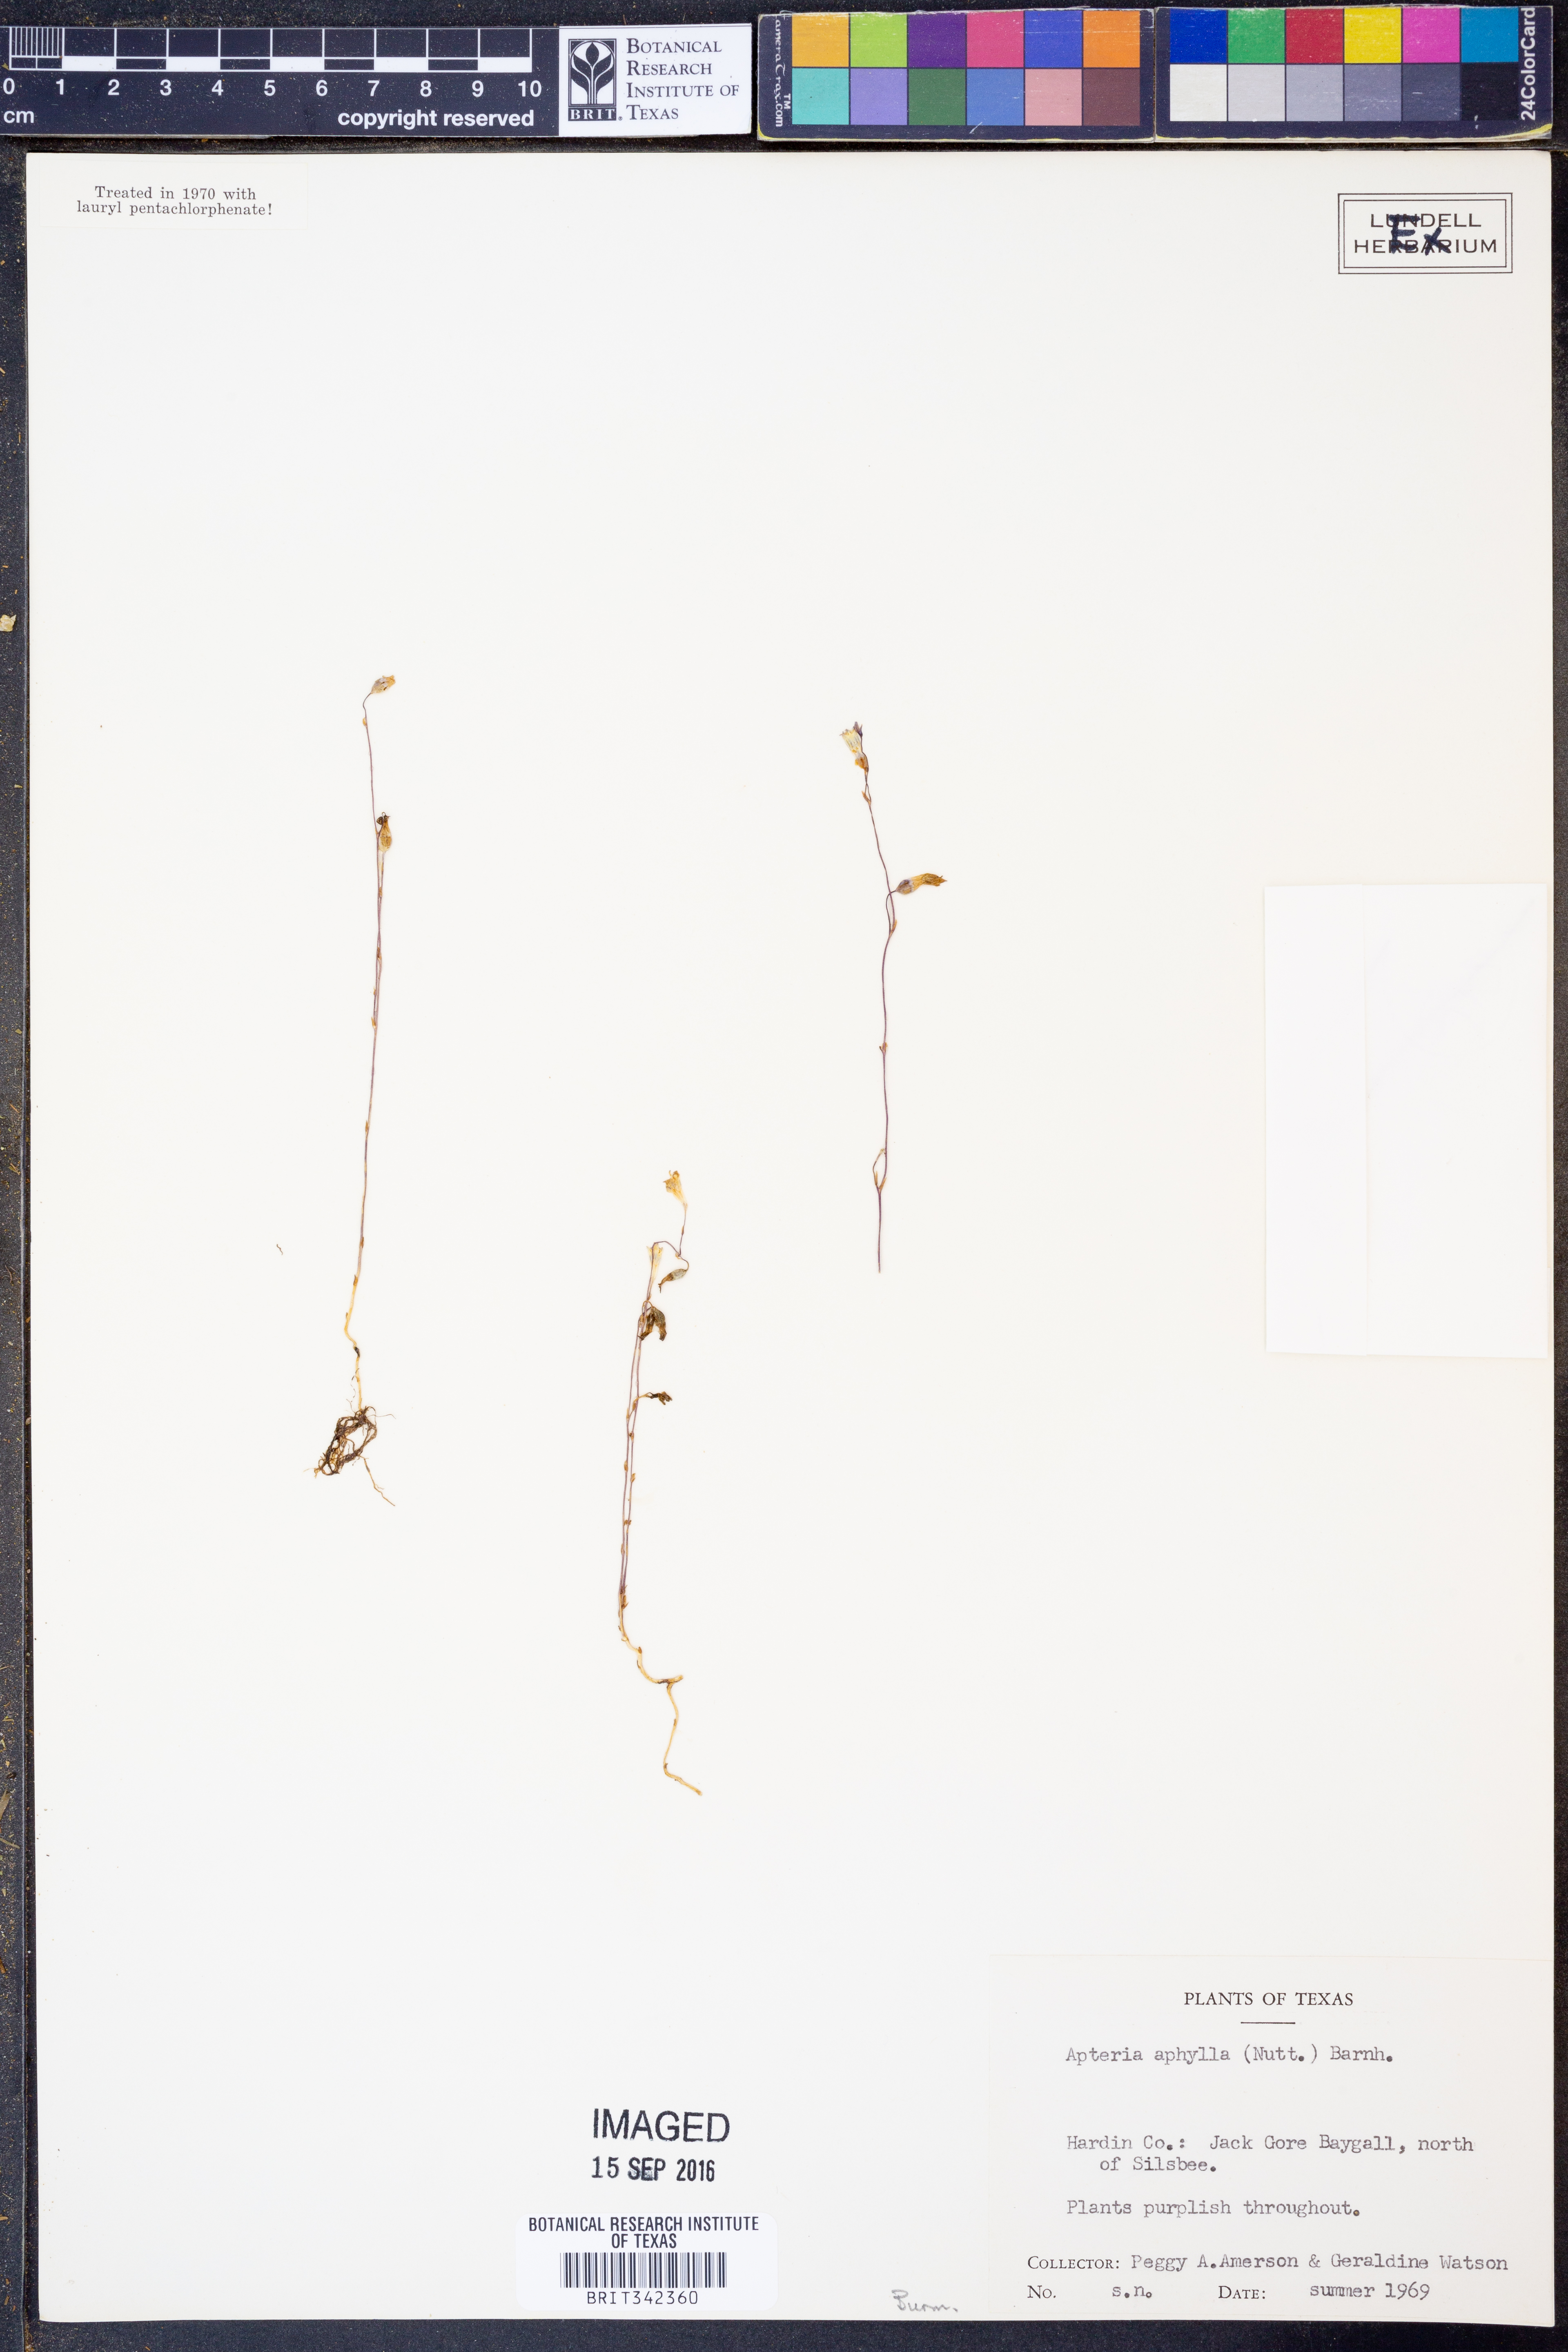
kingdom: Plantae
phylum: Tracheophyta
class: Liliopsida
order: Dioscoreales
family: Burmanniaceae
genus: Apteria
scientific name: Apteria aphylla
